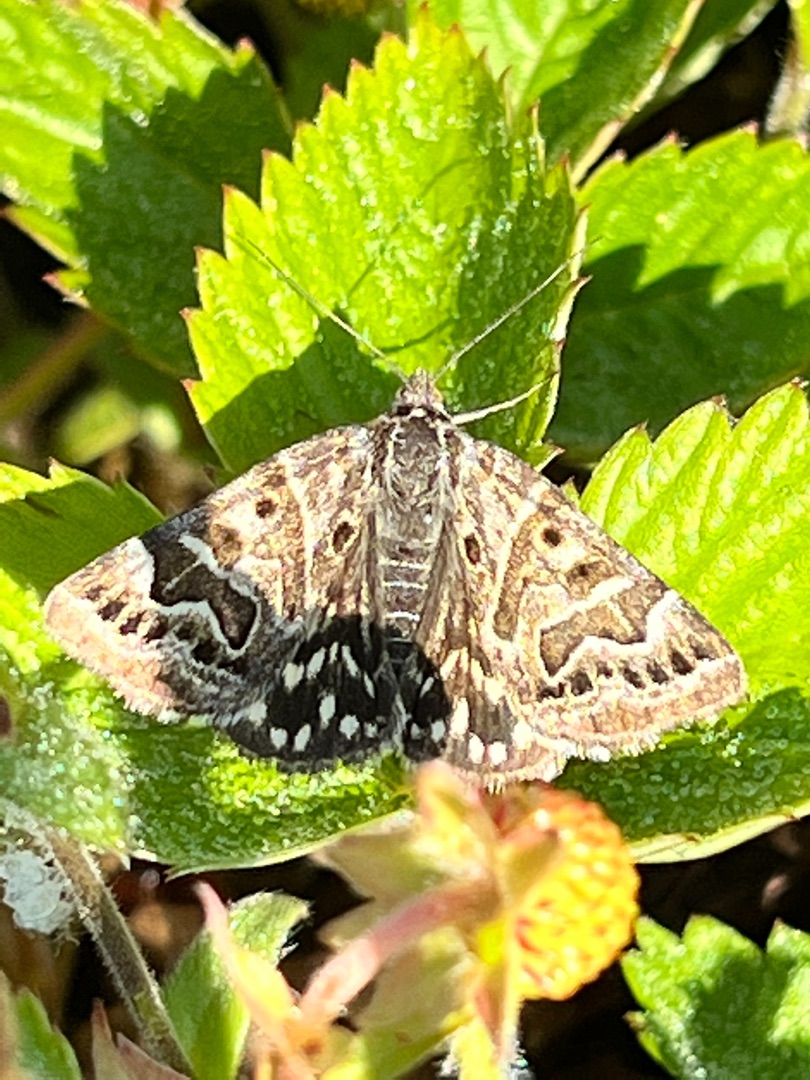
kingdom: Animalia
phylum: Arthropoda
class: Insecta
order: Lepidoptera
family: Erebidae
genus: Callistege
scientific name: Callistege mi
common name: Marmoreret kløverugle
